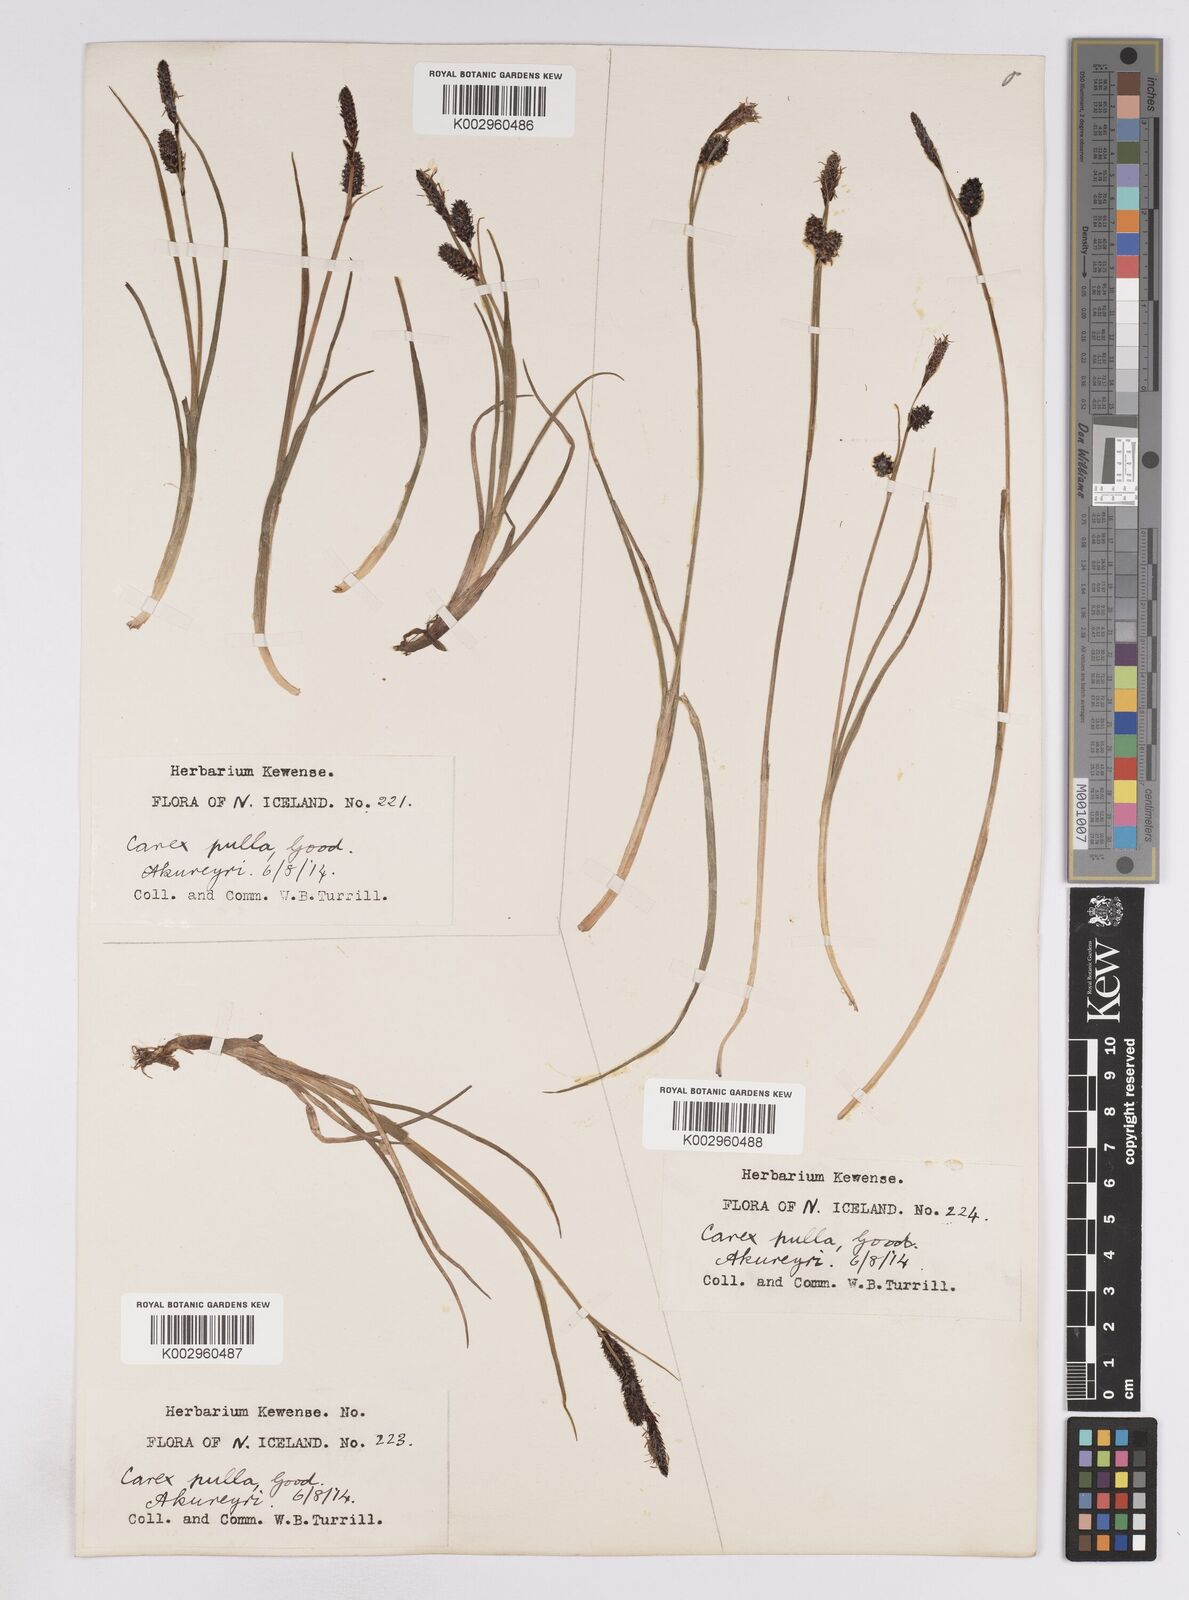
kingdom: Plantae
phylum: Tracheophyta
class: Liliopsida
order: Poales
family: Cyperaceae
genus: Carex
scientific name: Carex saxatilis
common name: Russet sedge
